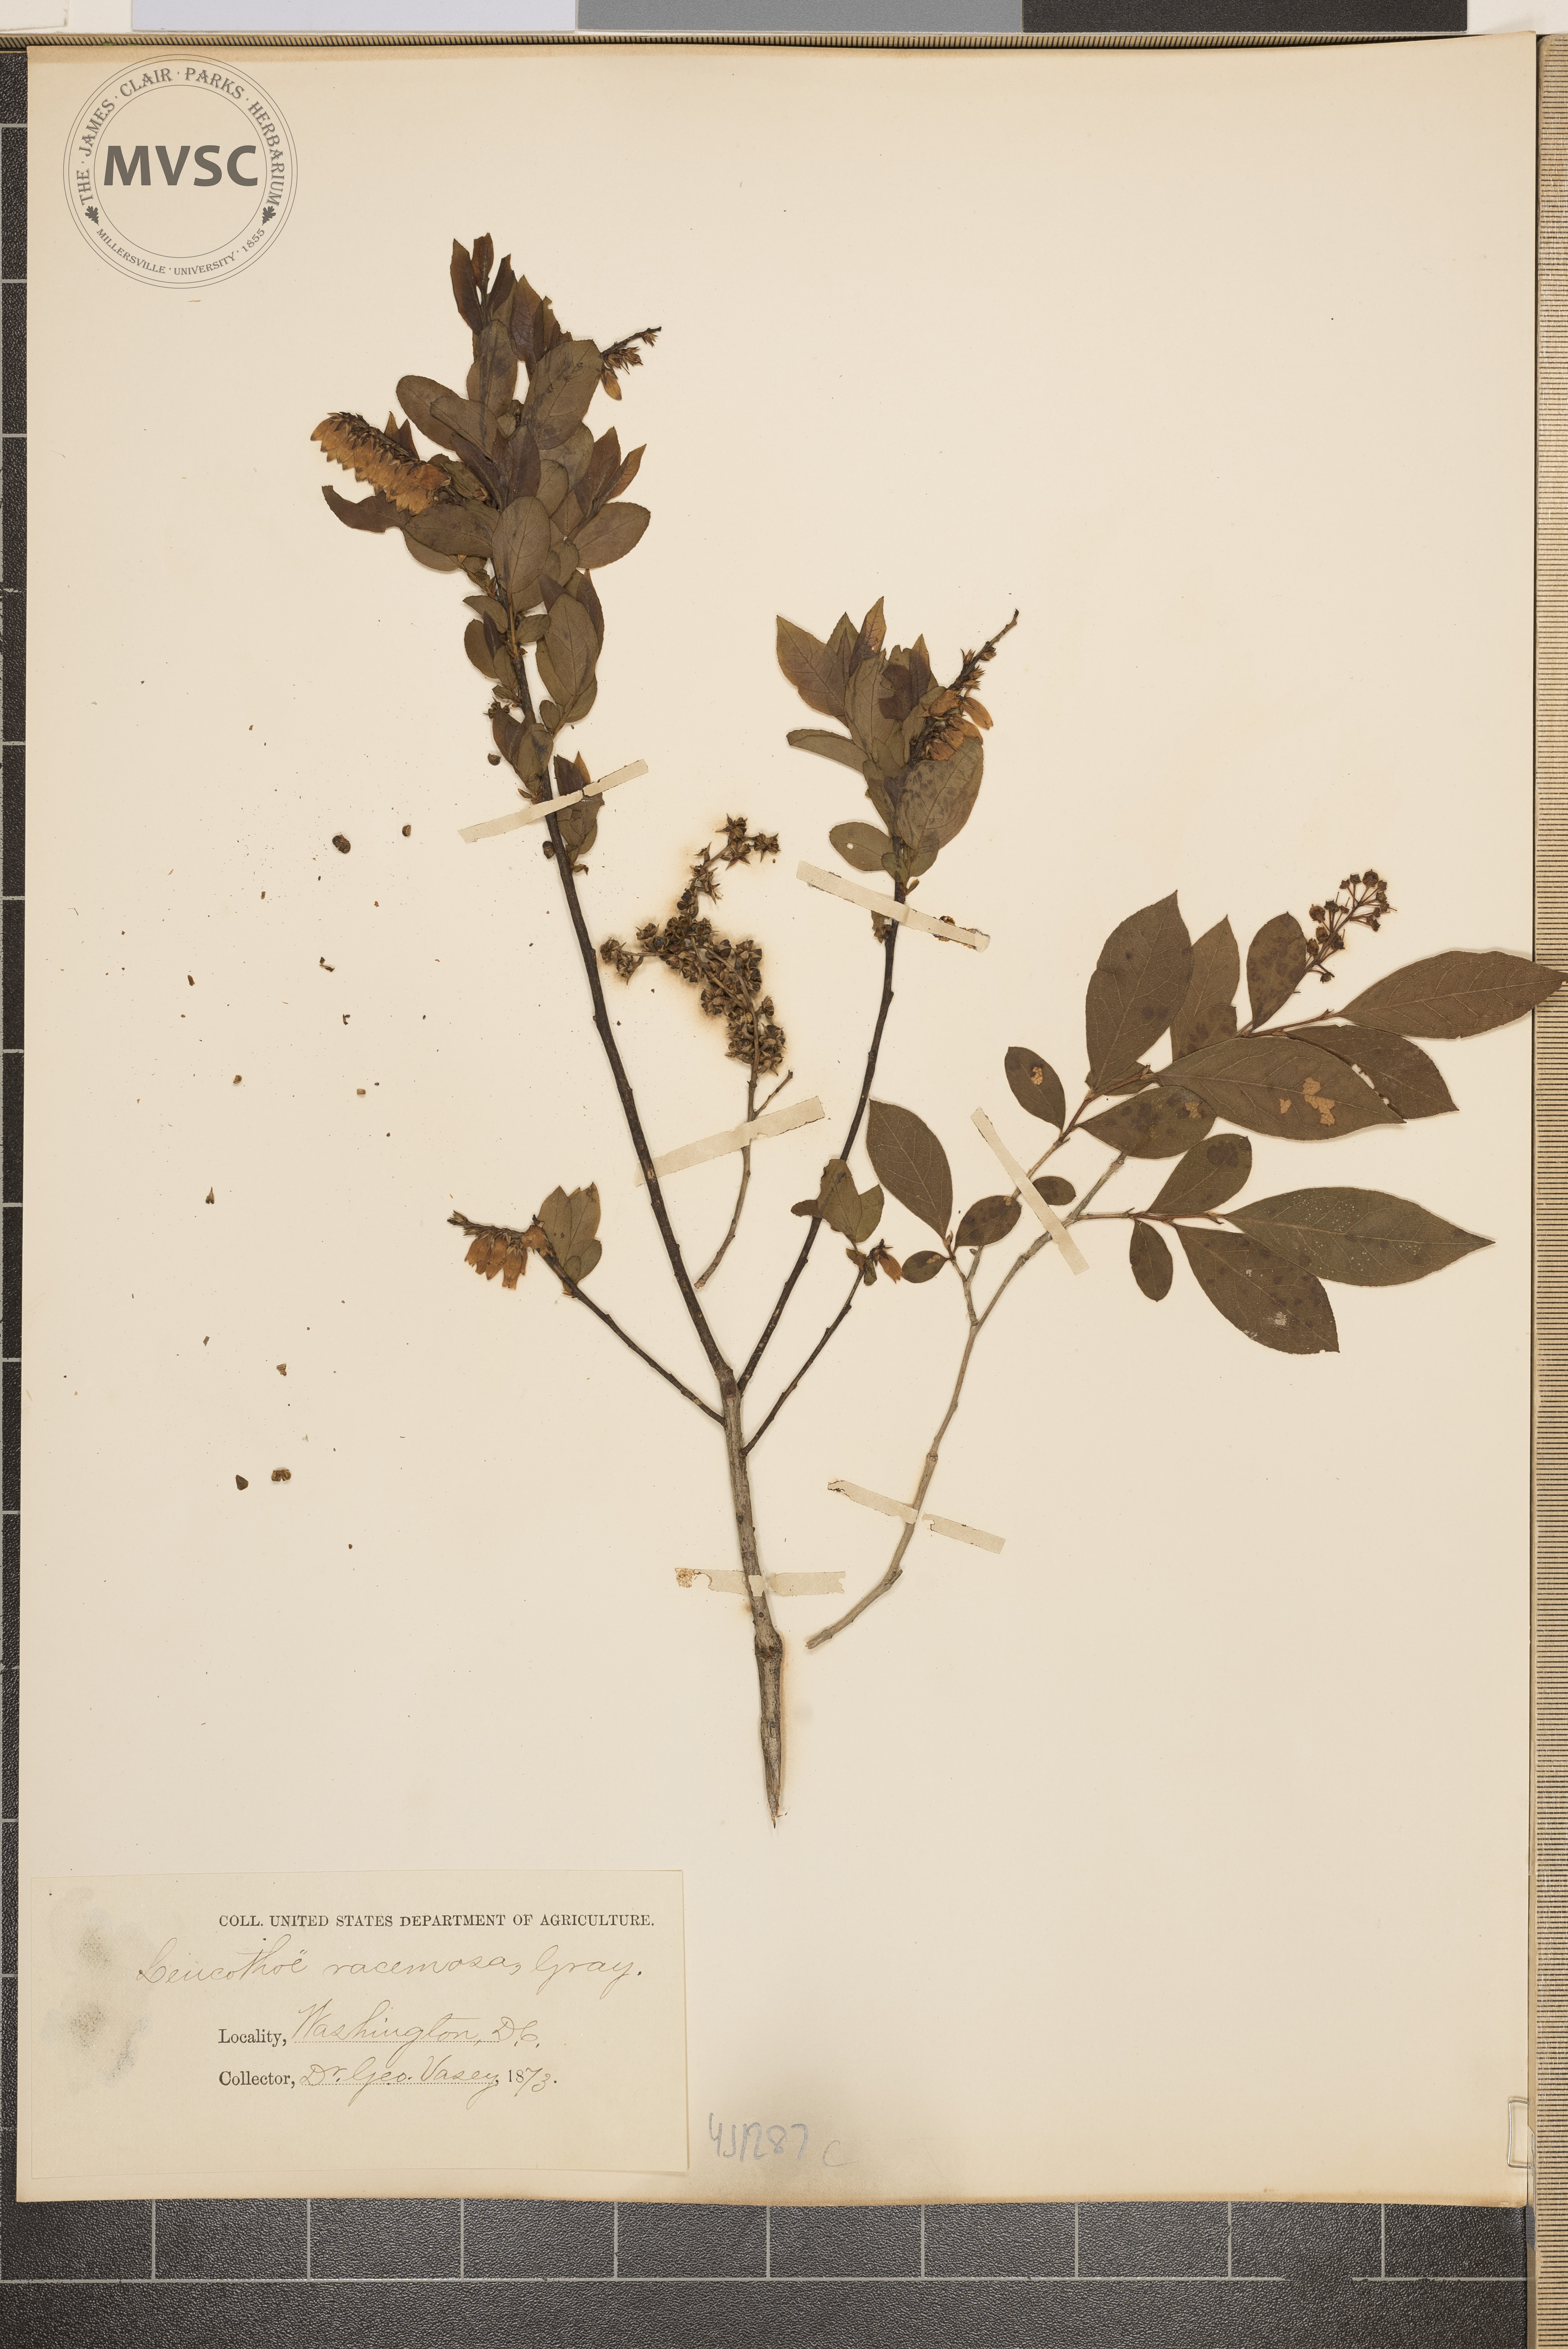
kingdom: Plantae
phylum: Tracheophyta
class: Magnoliopsida
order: Ericales
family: Ericaceae
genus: Eubotrys
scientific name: Eubotrys racemosa
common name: Fetterbush
